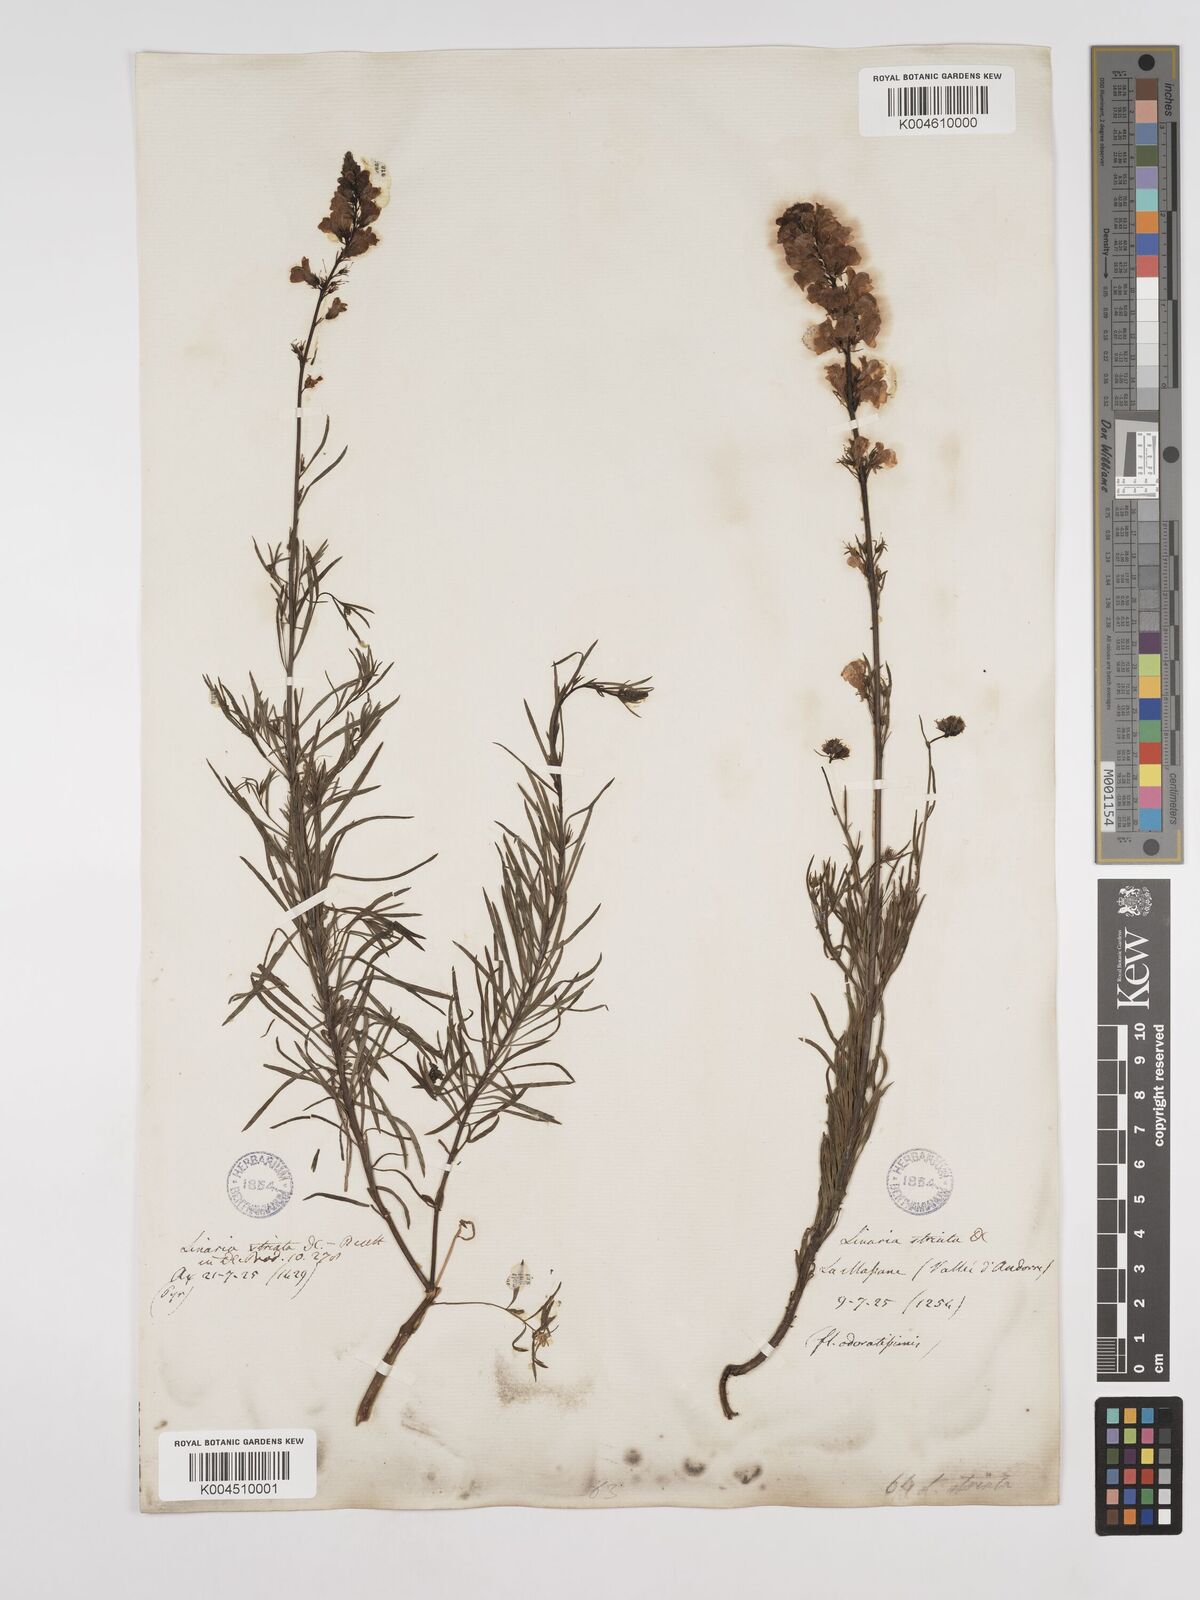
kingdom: Plantae
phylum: Tracheophyta
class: Magnoliopsida
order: Lamiales
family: Plantaginaceae
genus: Linaria
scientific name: Linaria repens
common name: Pale toadflax
